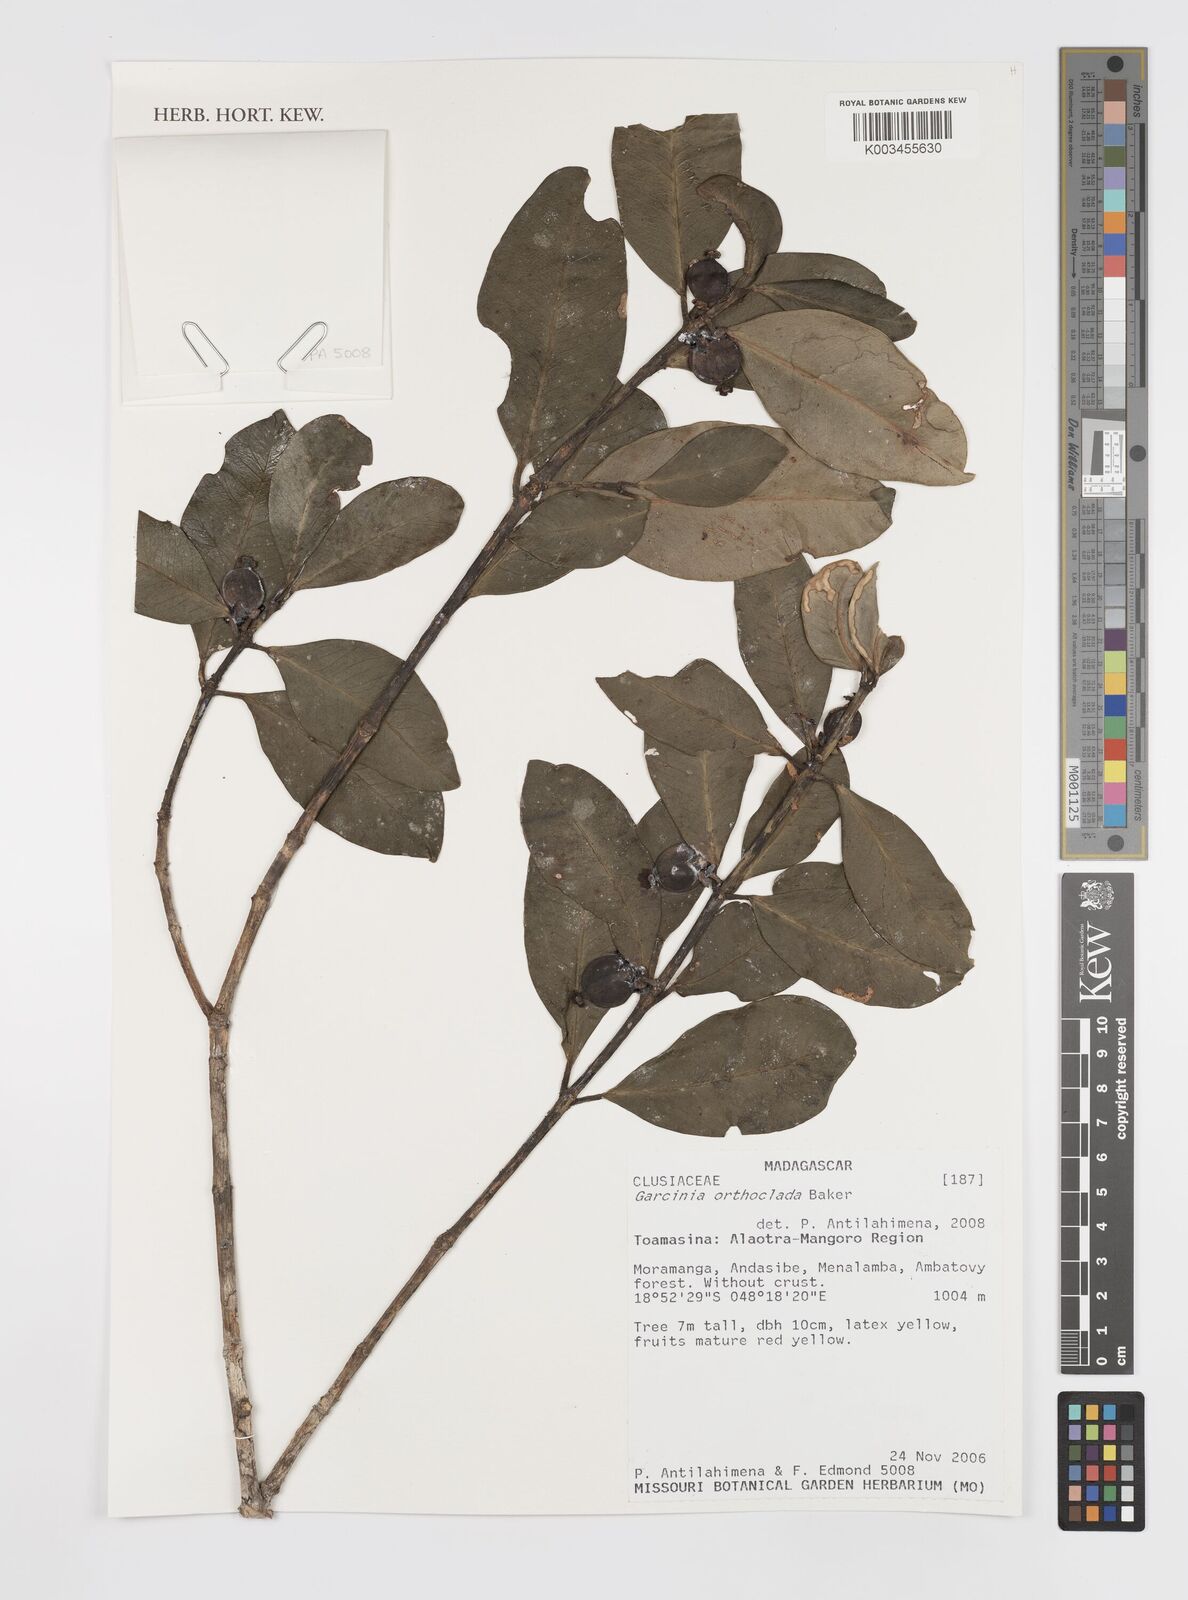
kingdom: Plantae
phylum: Tracheophyta
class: Magnoliopsida
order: Malpighiales
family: Clusiaceae
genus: Garcinia
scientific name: Garcinia orthoclada
